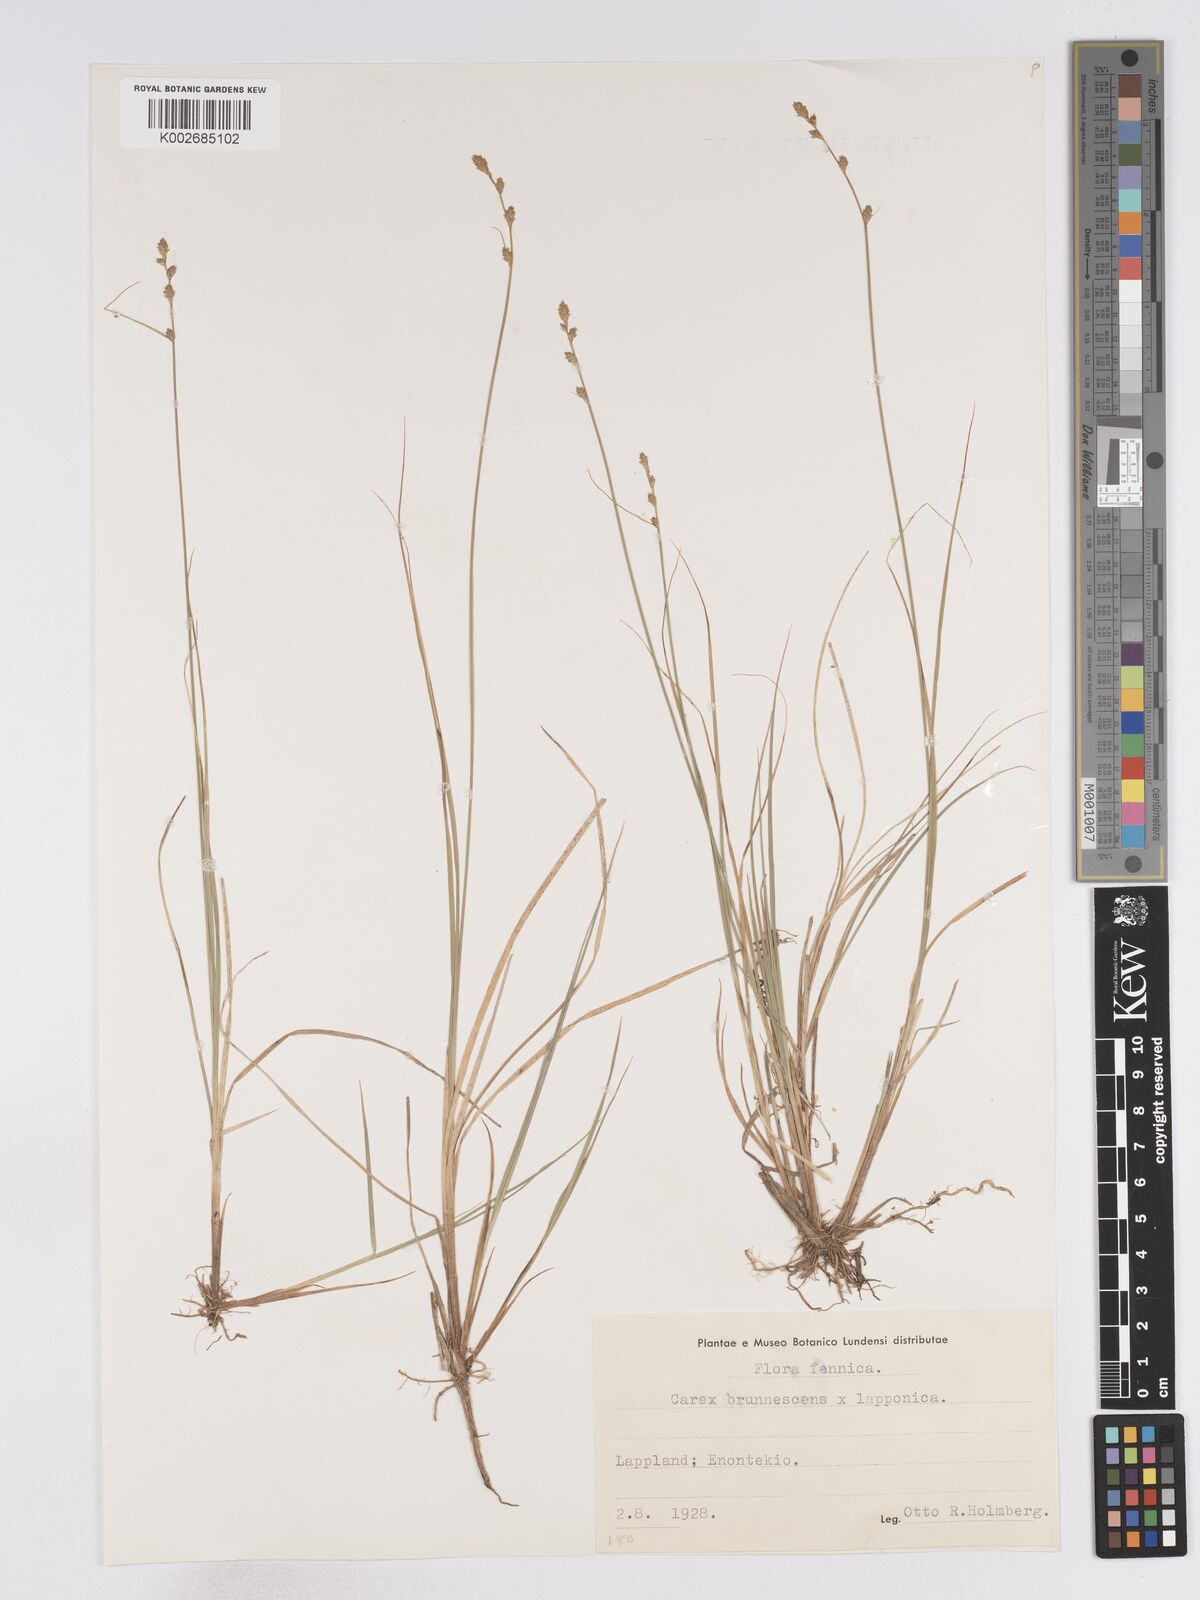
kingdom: Plantae
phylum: Tracheophyta
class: Liliopsida
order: Poales
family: Cyperaceae
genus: Carex
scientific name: Carex brunnescens
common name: Brown sedge
